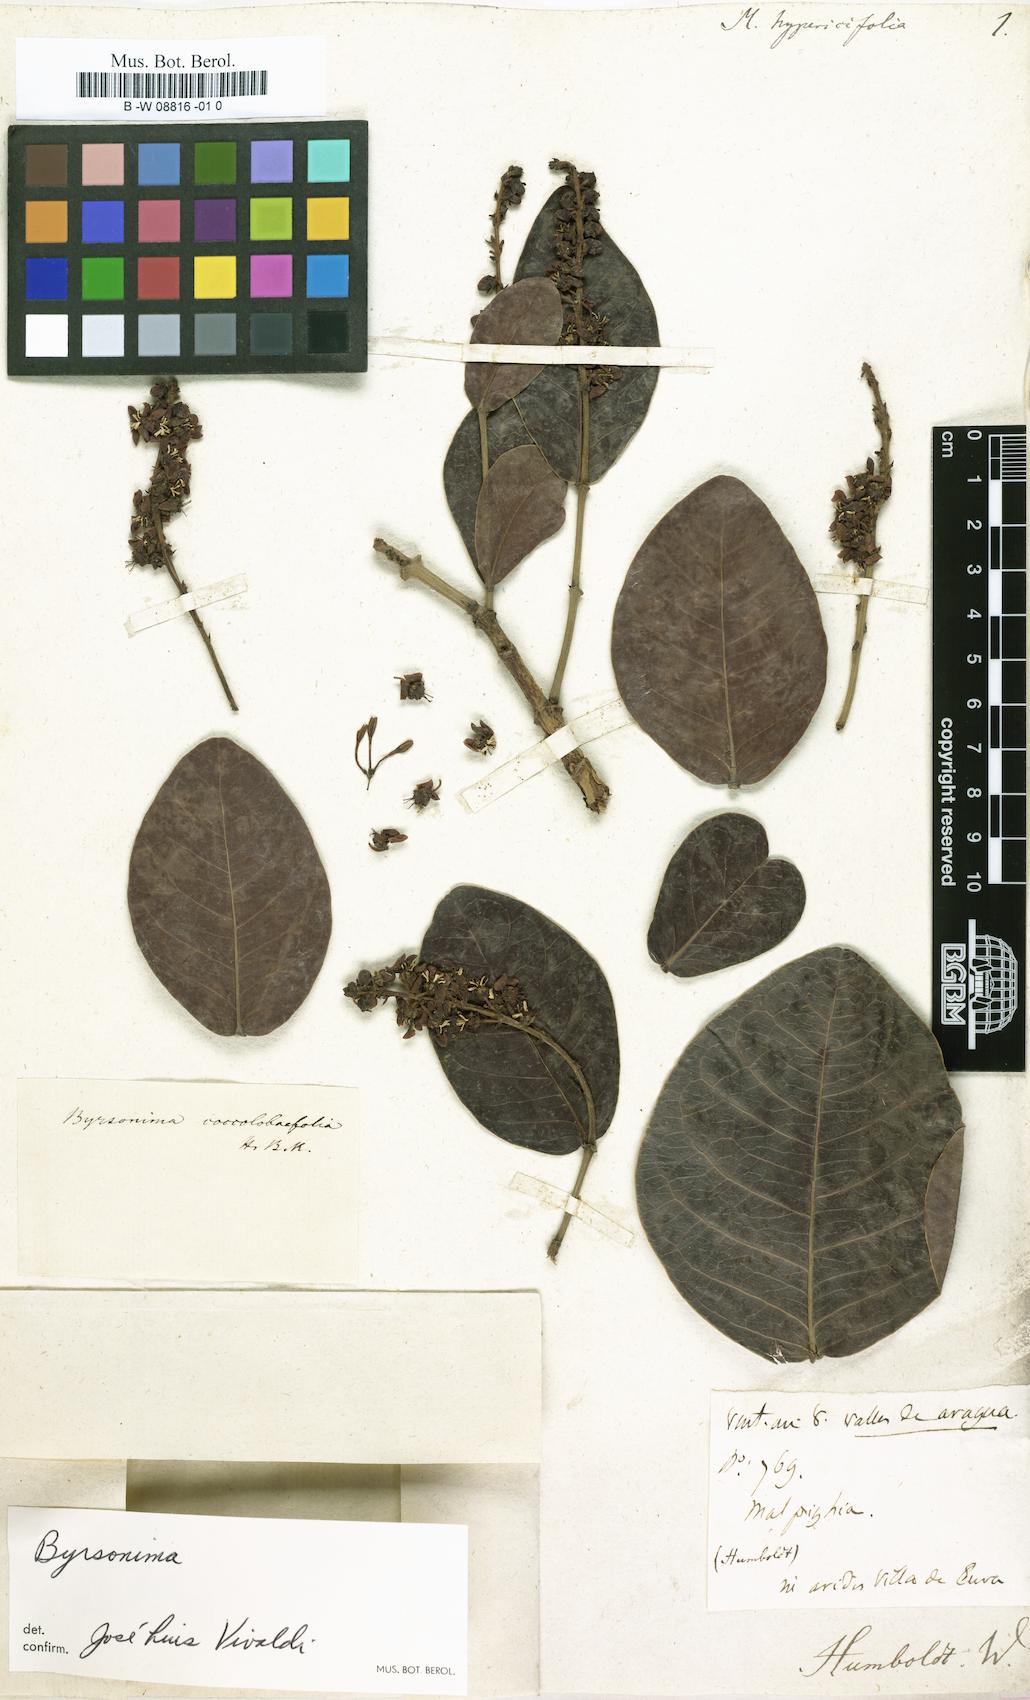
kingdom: Plantae
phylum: Tracheophyta
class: Magnoliopsida
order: Malpighiales
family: Malpighiaceae
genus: Malpighia
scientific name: Malpighia
